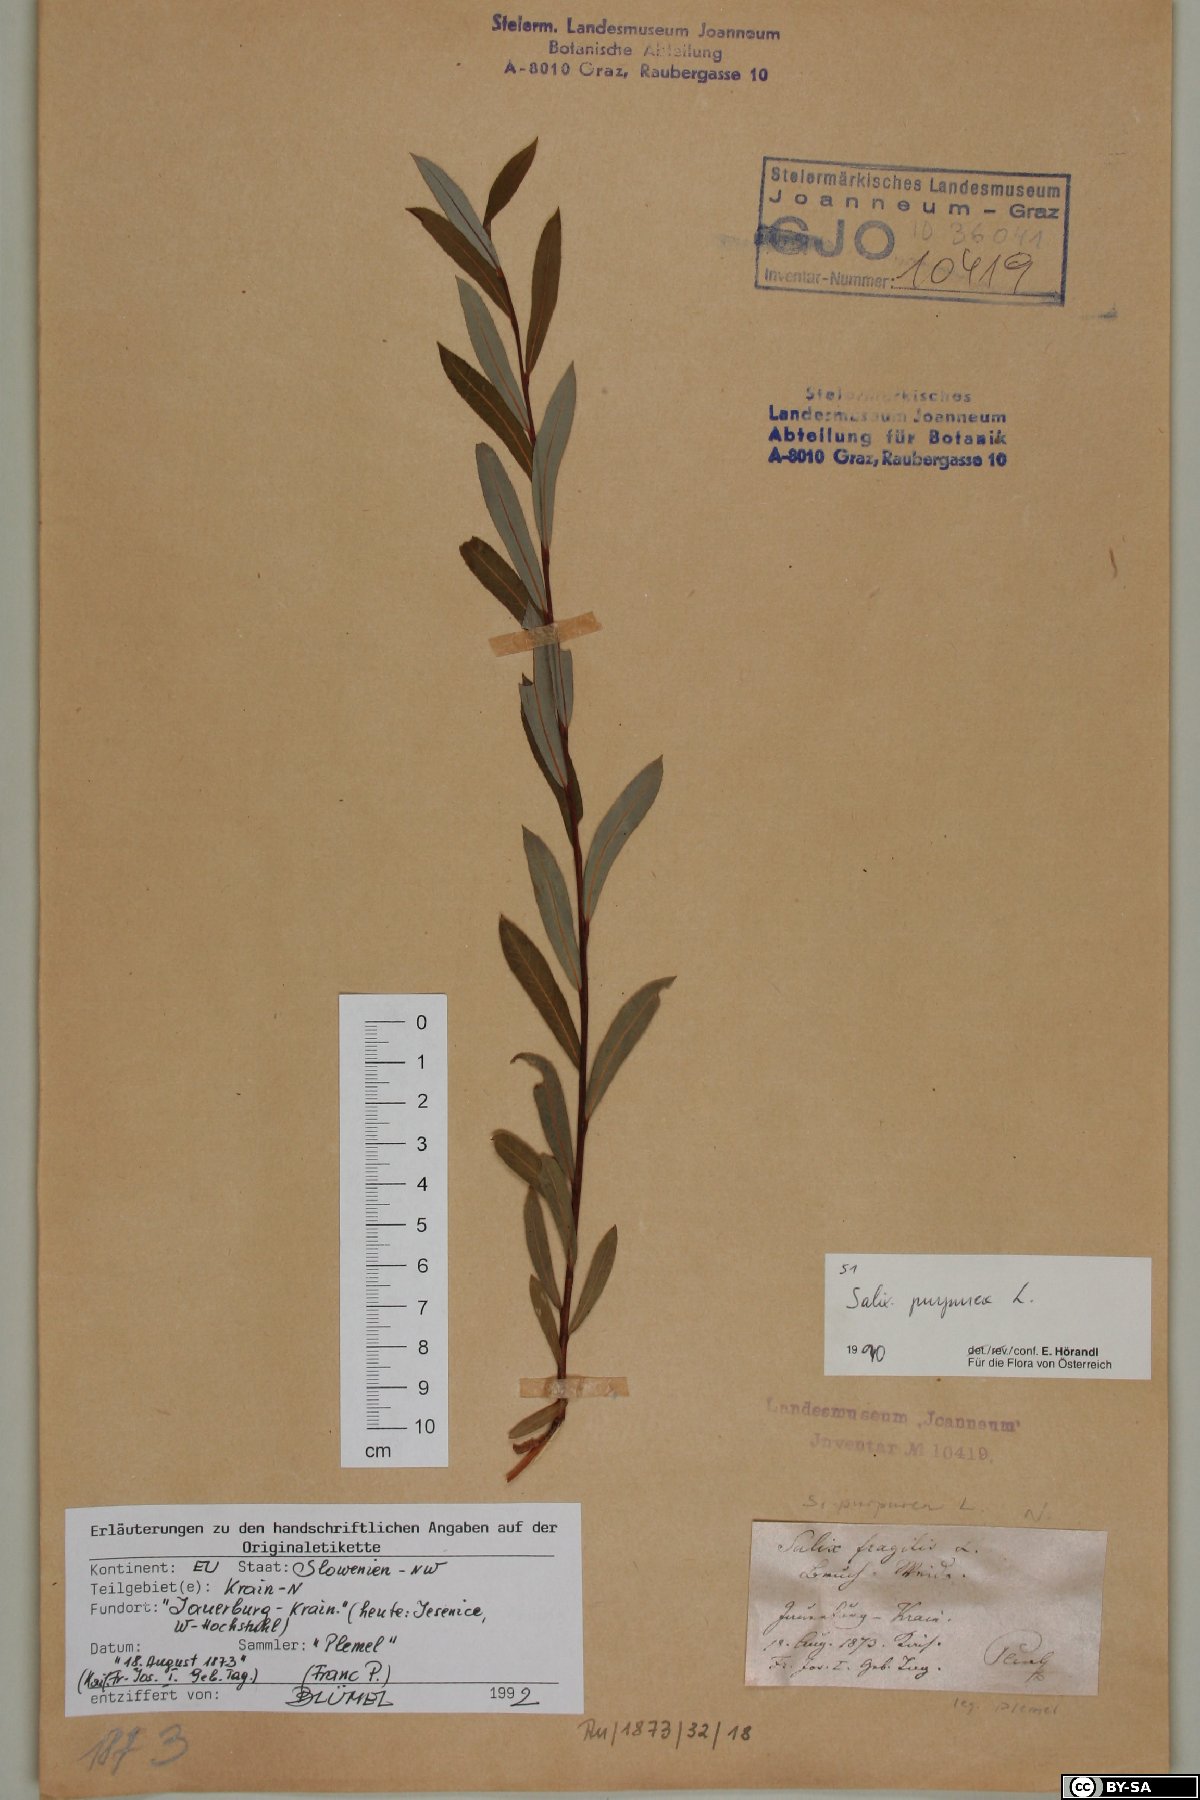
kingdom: Plantae
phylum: Tracheophyta
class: Magnoliopsida
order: Malpighiales
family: Salicaceae
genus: Salix
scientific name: Salix purpurea
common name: Purple willow
